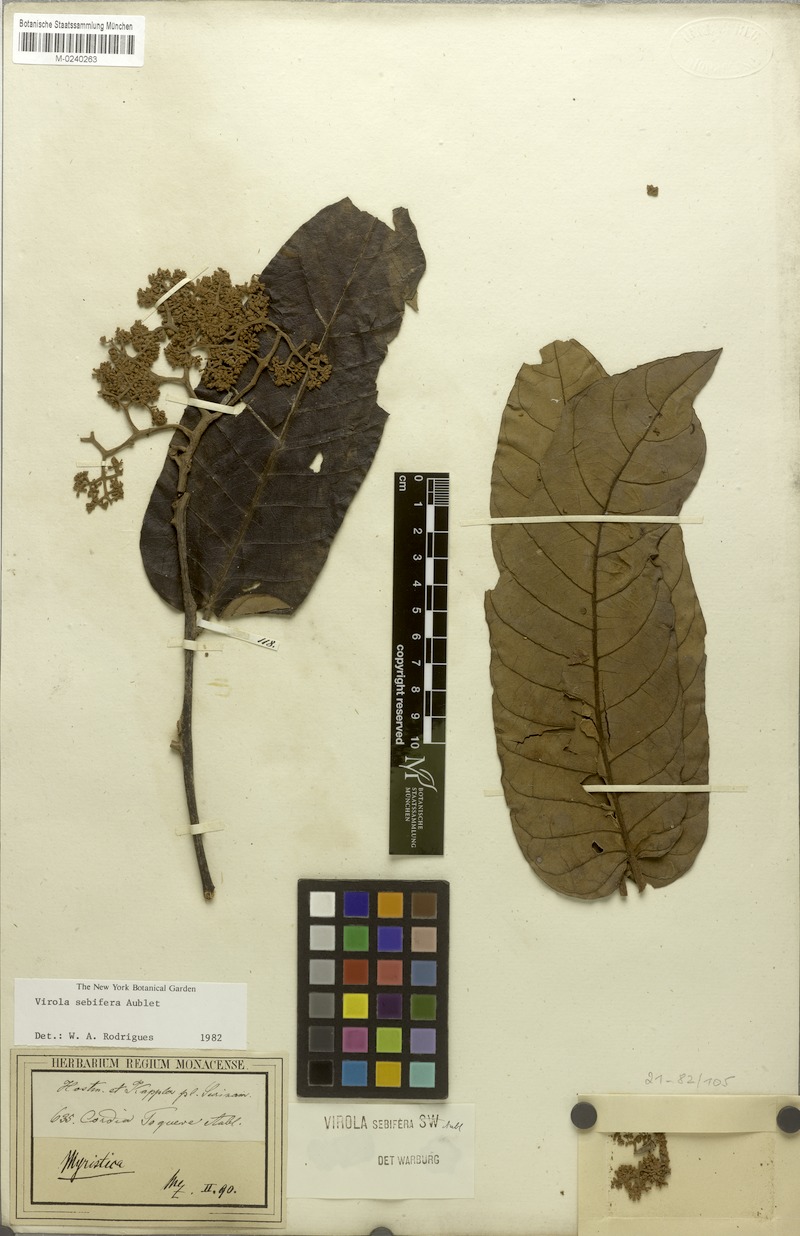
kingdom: Plantae
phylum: Tracheophyta
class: Magnoliopsida
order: Magnoliales
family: Myristicaceae
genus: Virola
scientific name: Virola sebifera
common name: Red ucuuba
